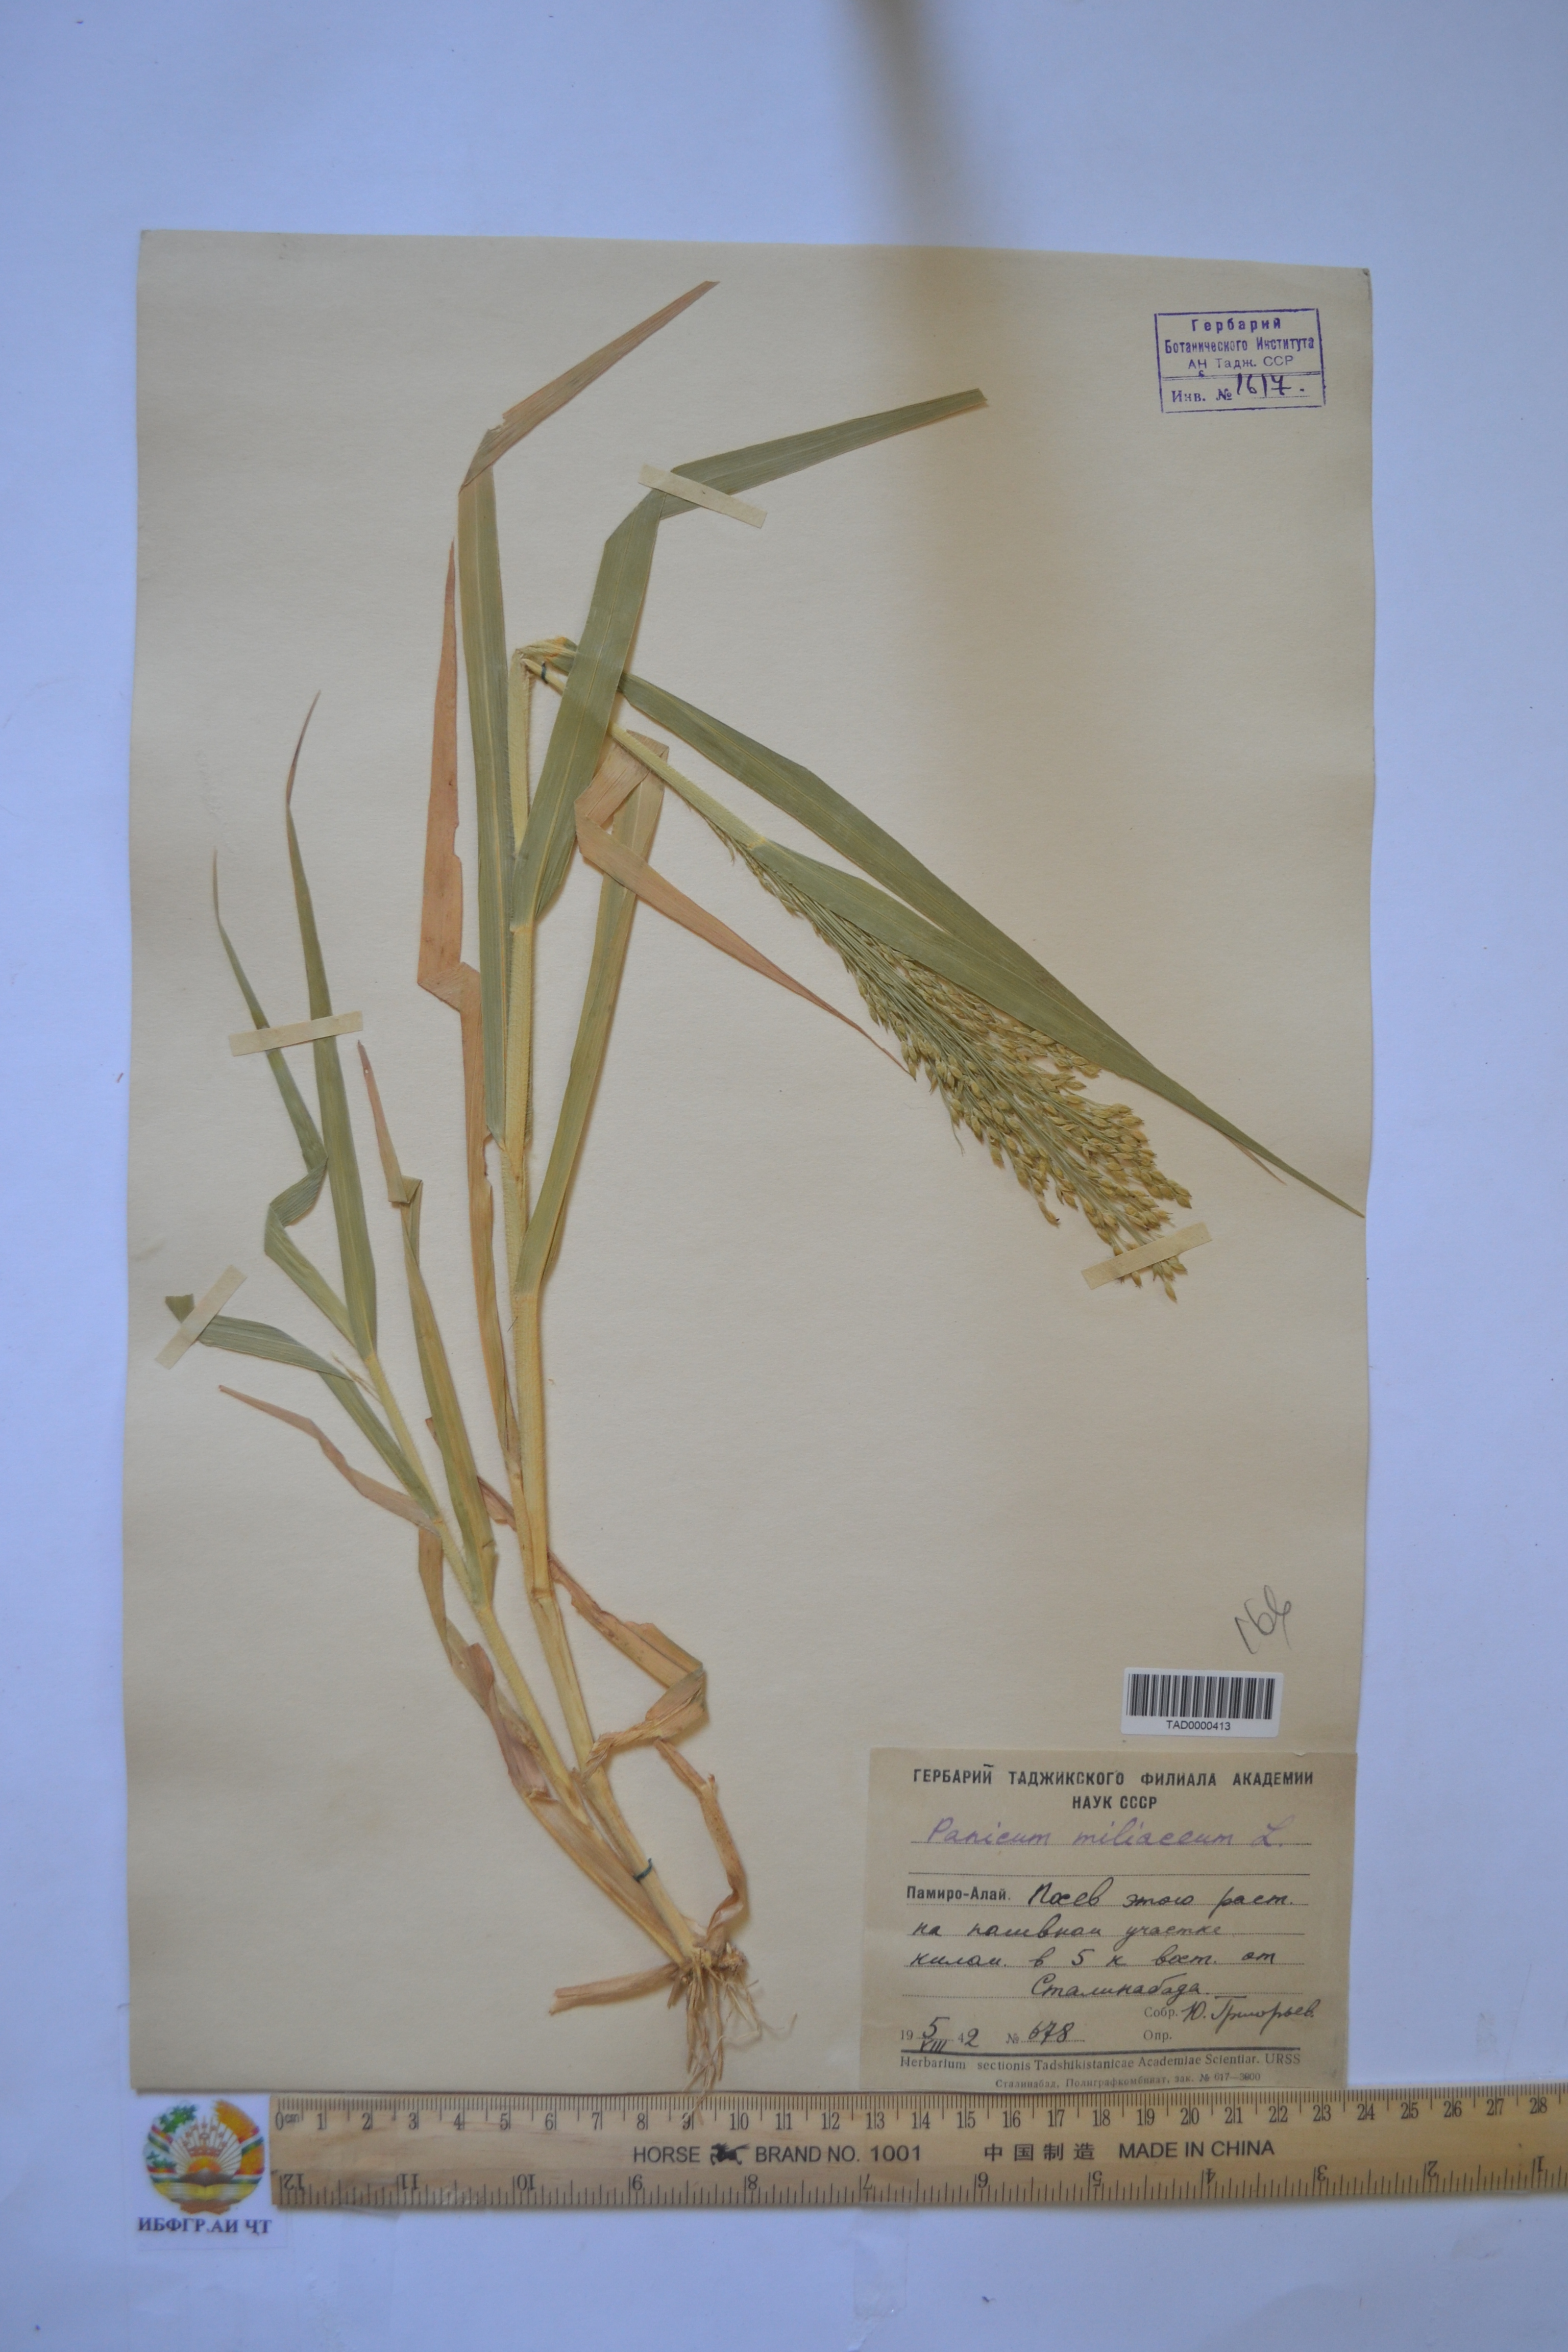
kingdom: Plantae
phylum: Tracheophyta
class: Liliopsida
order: Poales
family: Poaceae
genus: Panicum
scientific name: Panicum miliaceum
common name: Common millet
